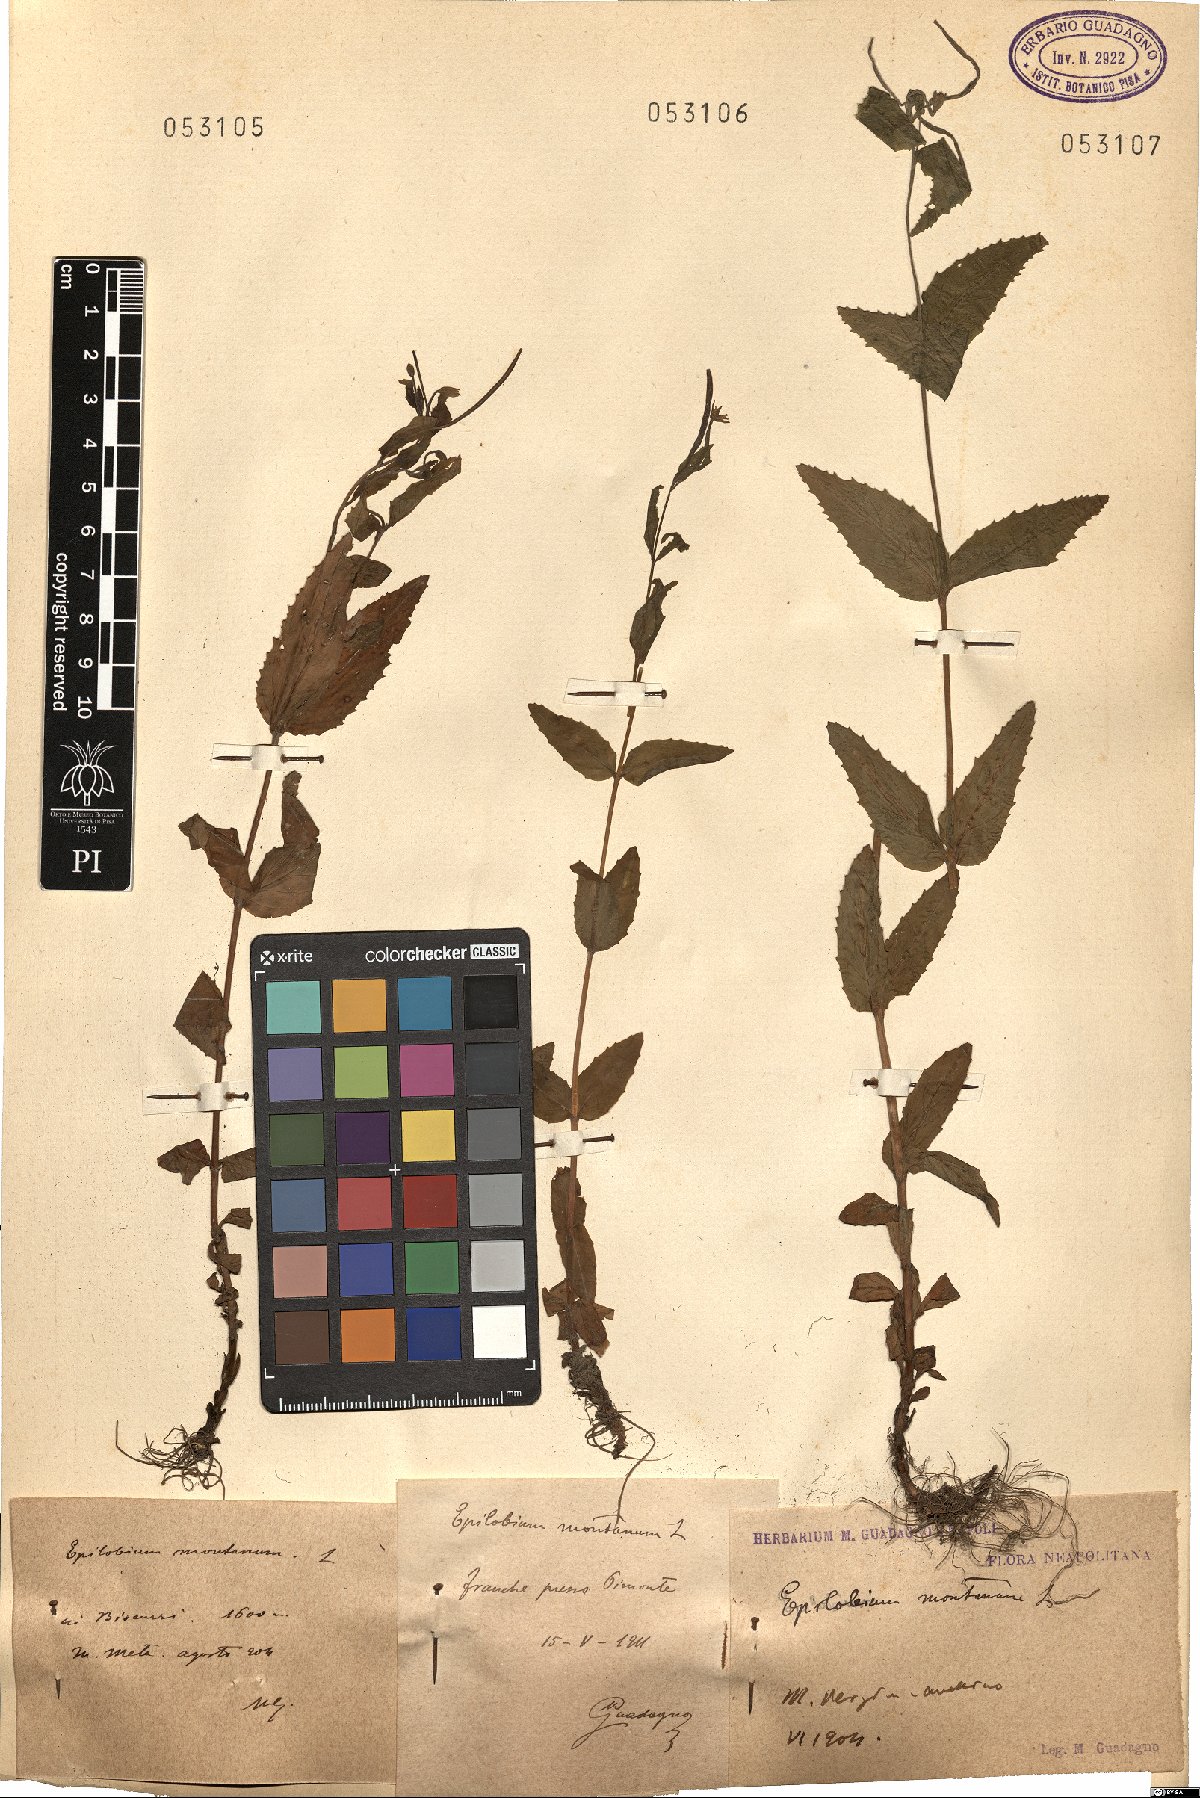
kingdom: Plantae
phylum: Tracheophyta
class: Magnoliopsida
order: Myrtales
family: Onagraceae
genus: Epilobium
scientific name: Epilobium montanum
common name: Broad-leaved willowherb
